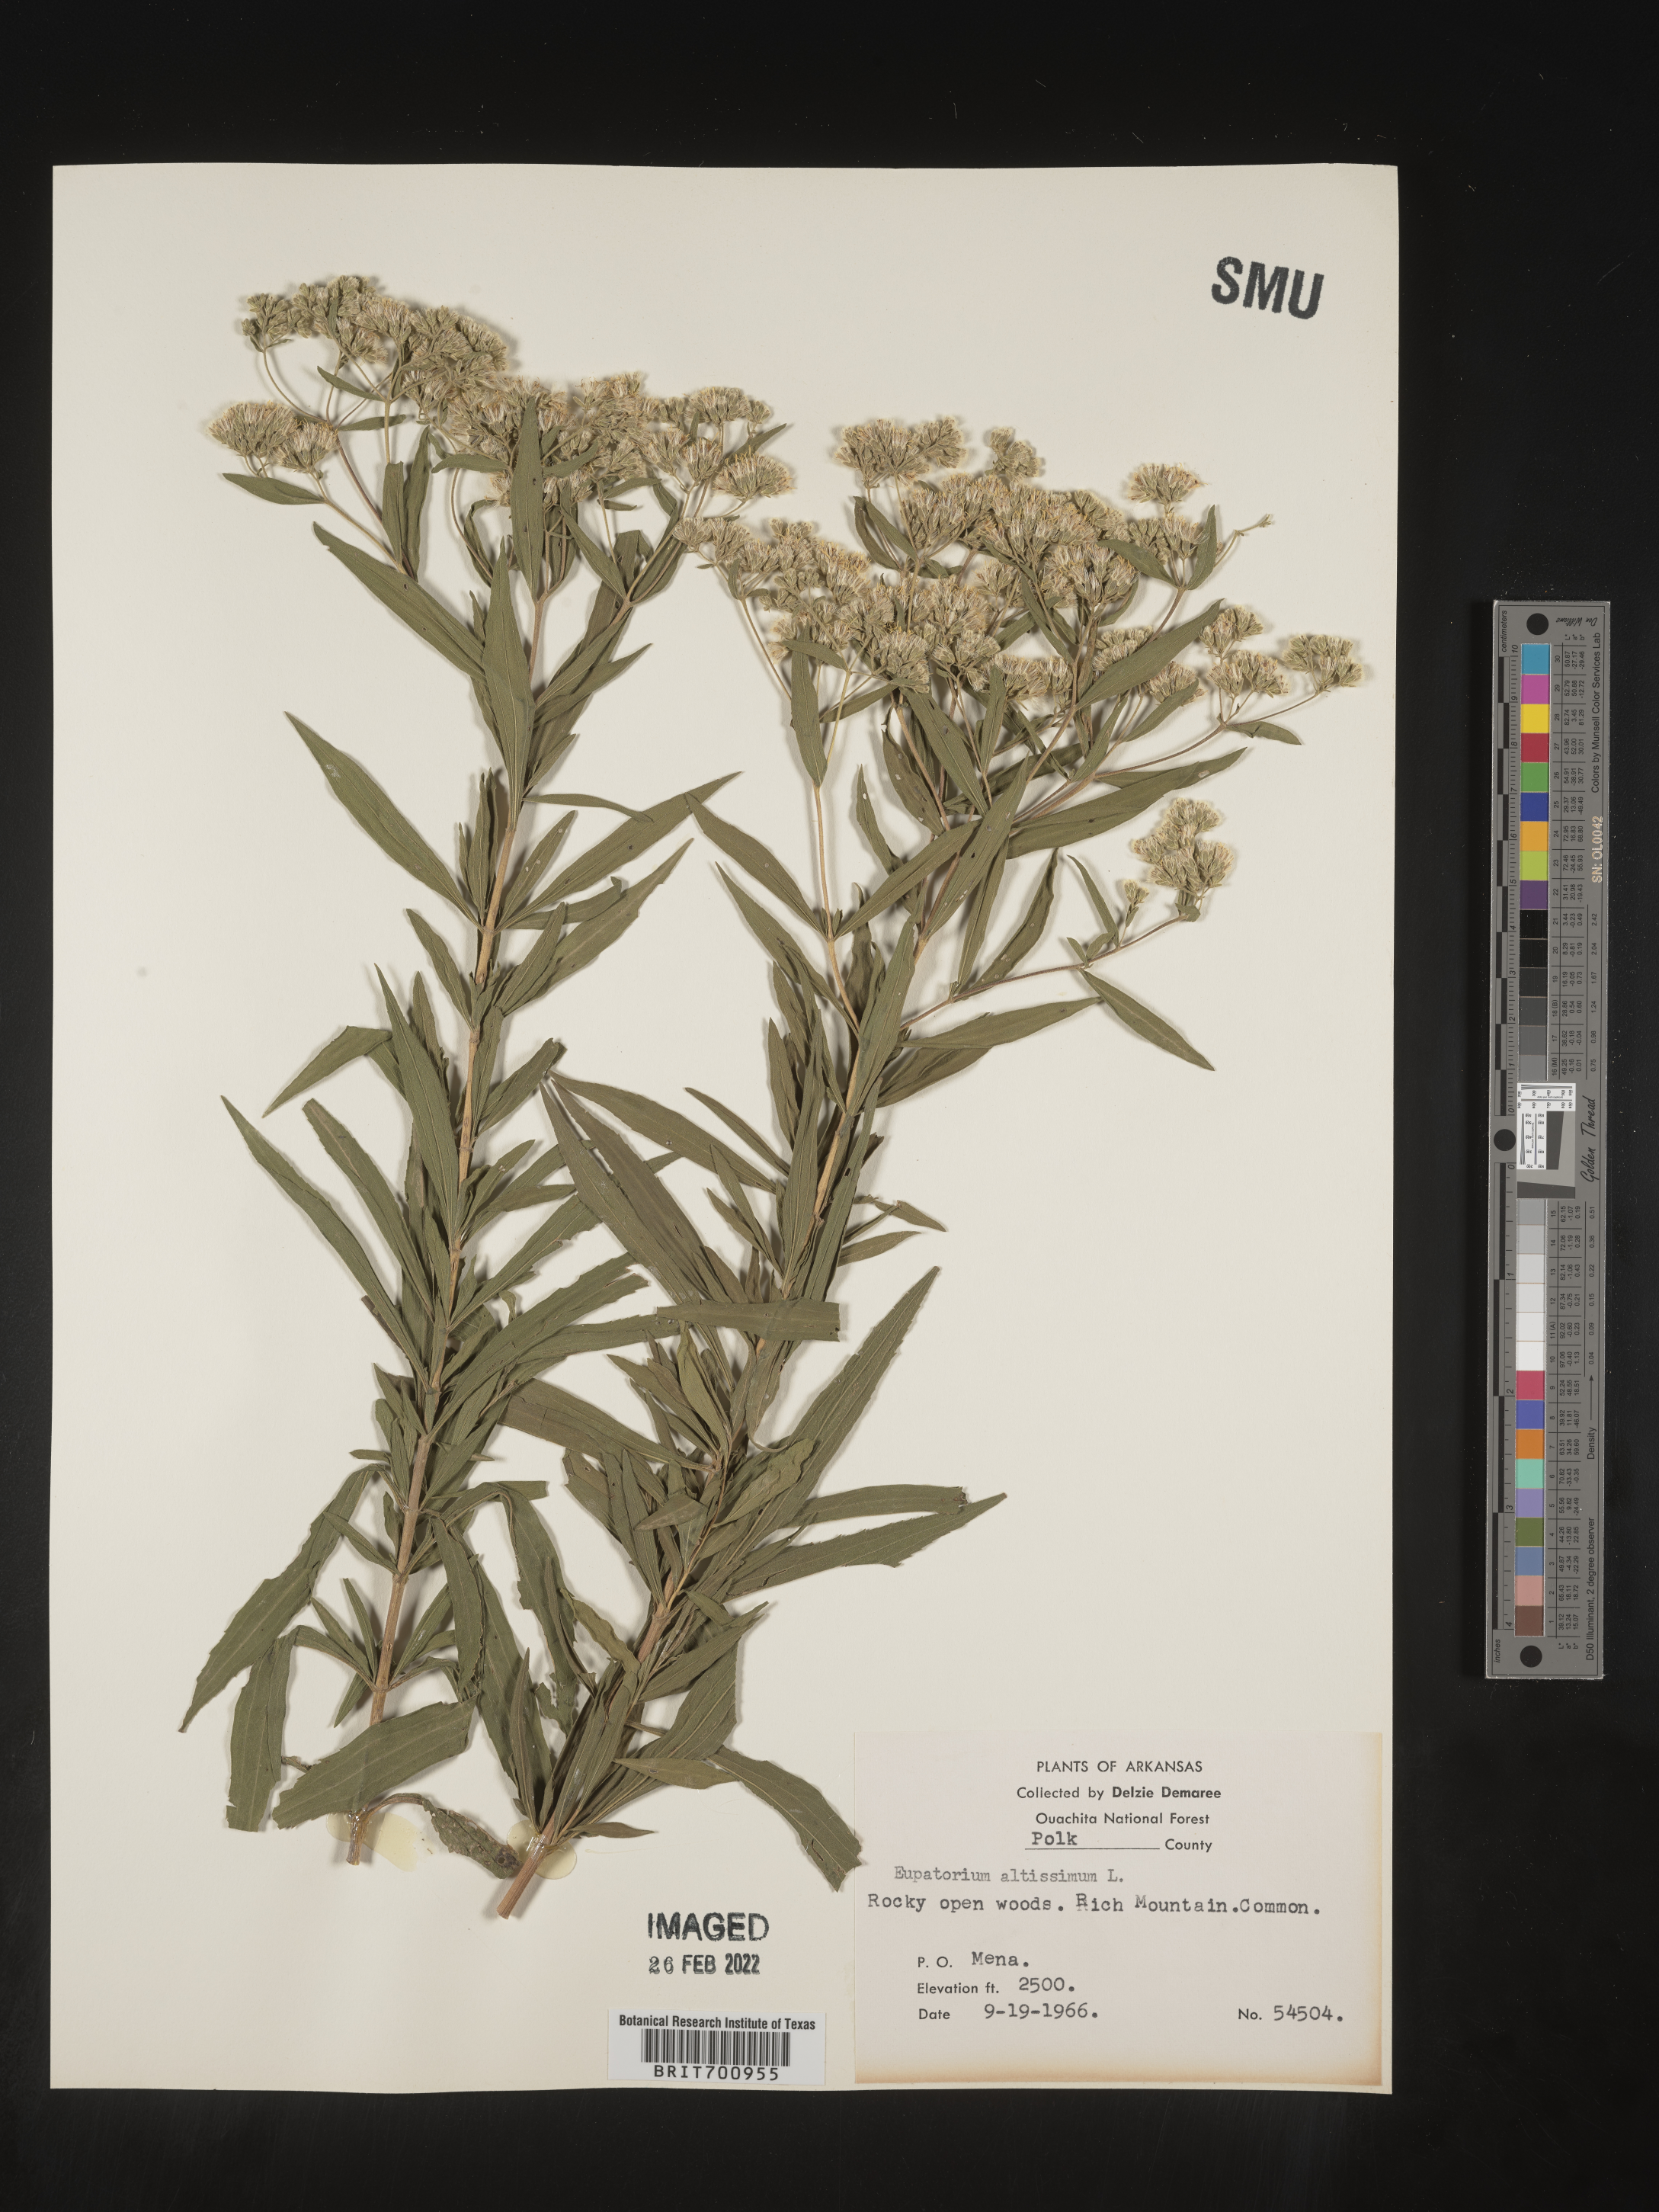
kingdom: Plantae
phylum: Tracheophyta
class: Magnoliopsida
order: Asterales
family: Asteraceae
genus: Eupatorium
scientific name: Eupatorium altissimum
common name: Tall thoroughwort
